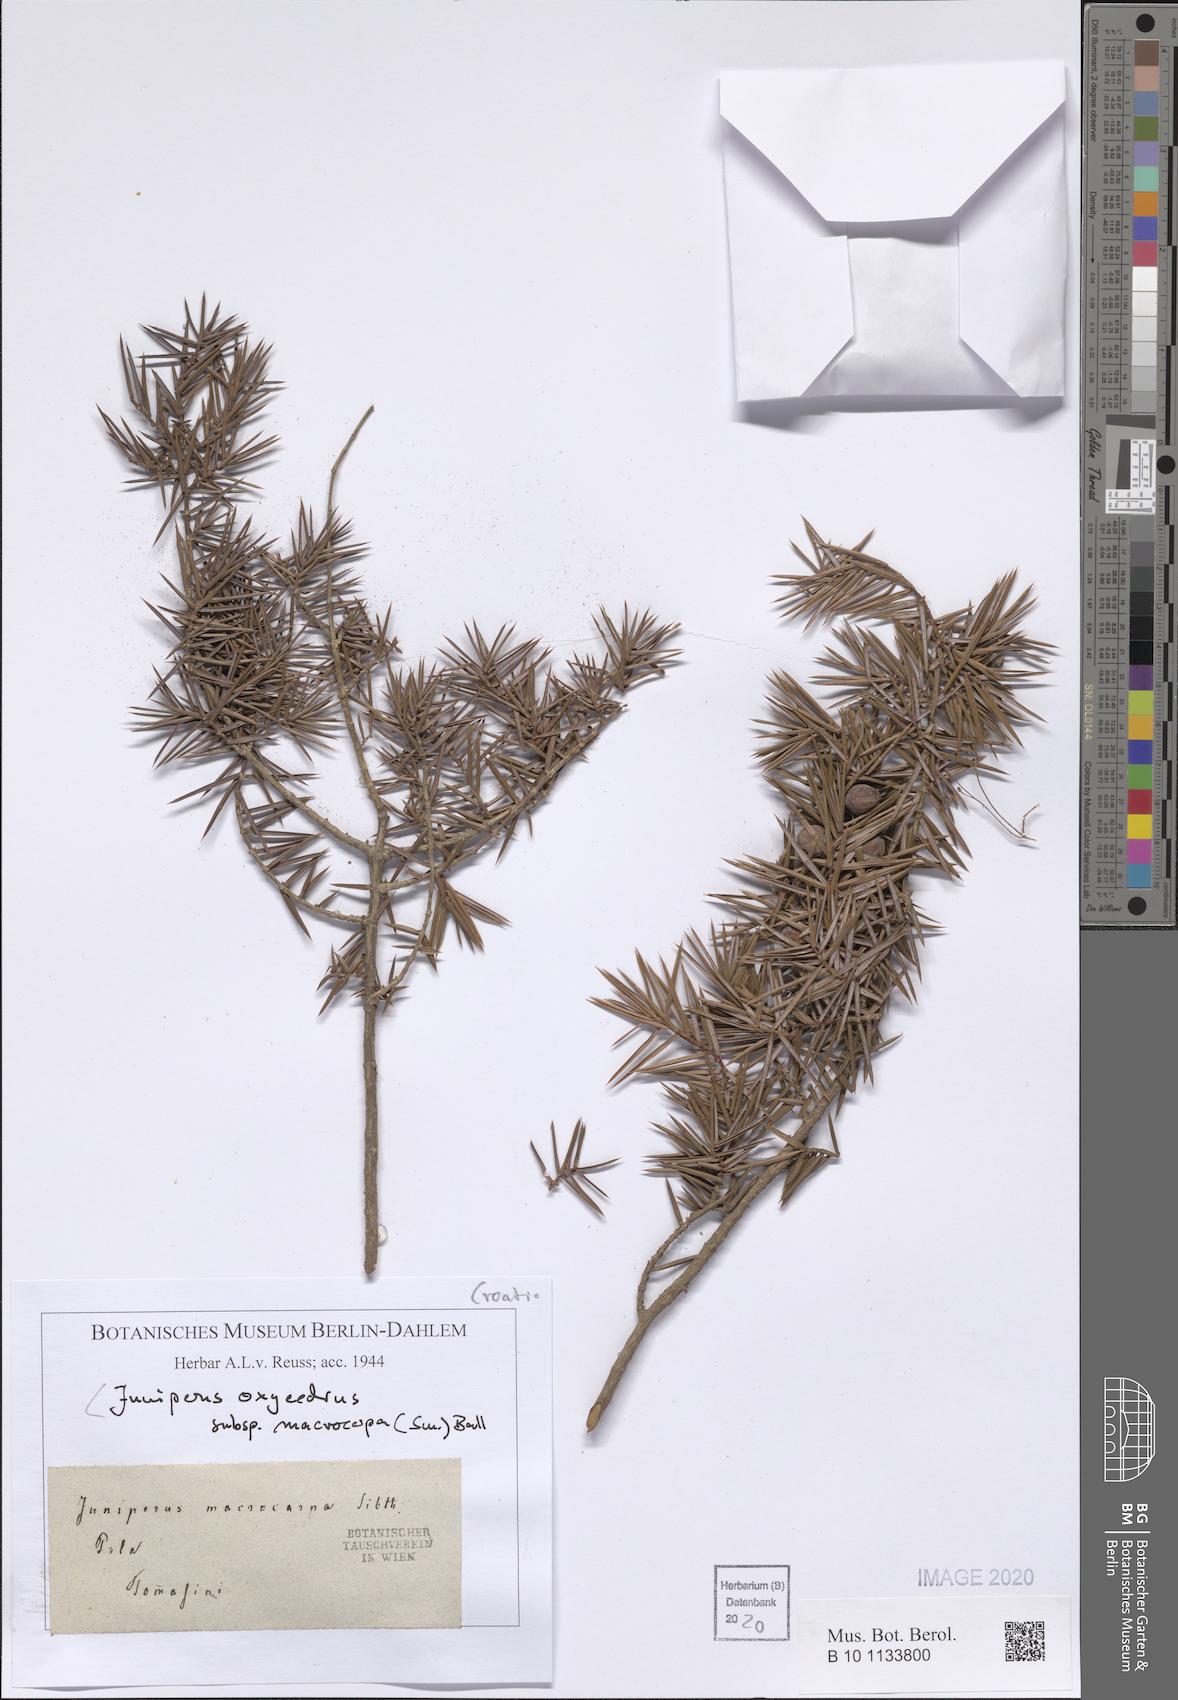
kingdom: Plantae
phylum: Tracheophyta
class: Pinopsida
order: Pinales
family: Cupressaceae
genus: Juniperus
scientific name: Juniperus oxycedrus
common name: Prickly juniper
